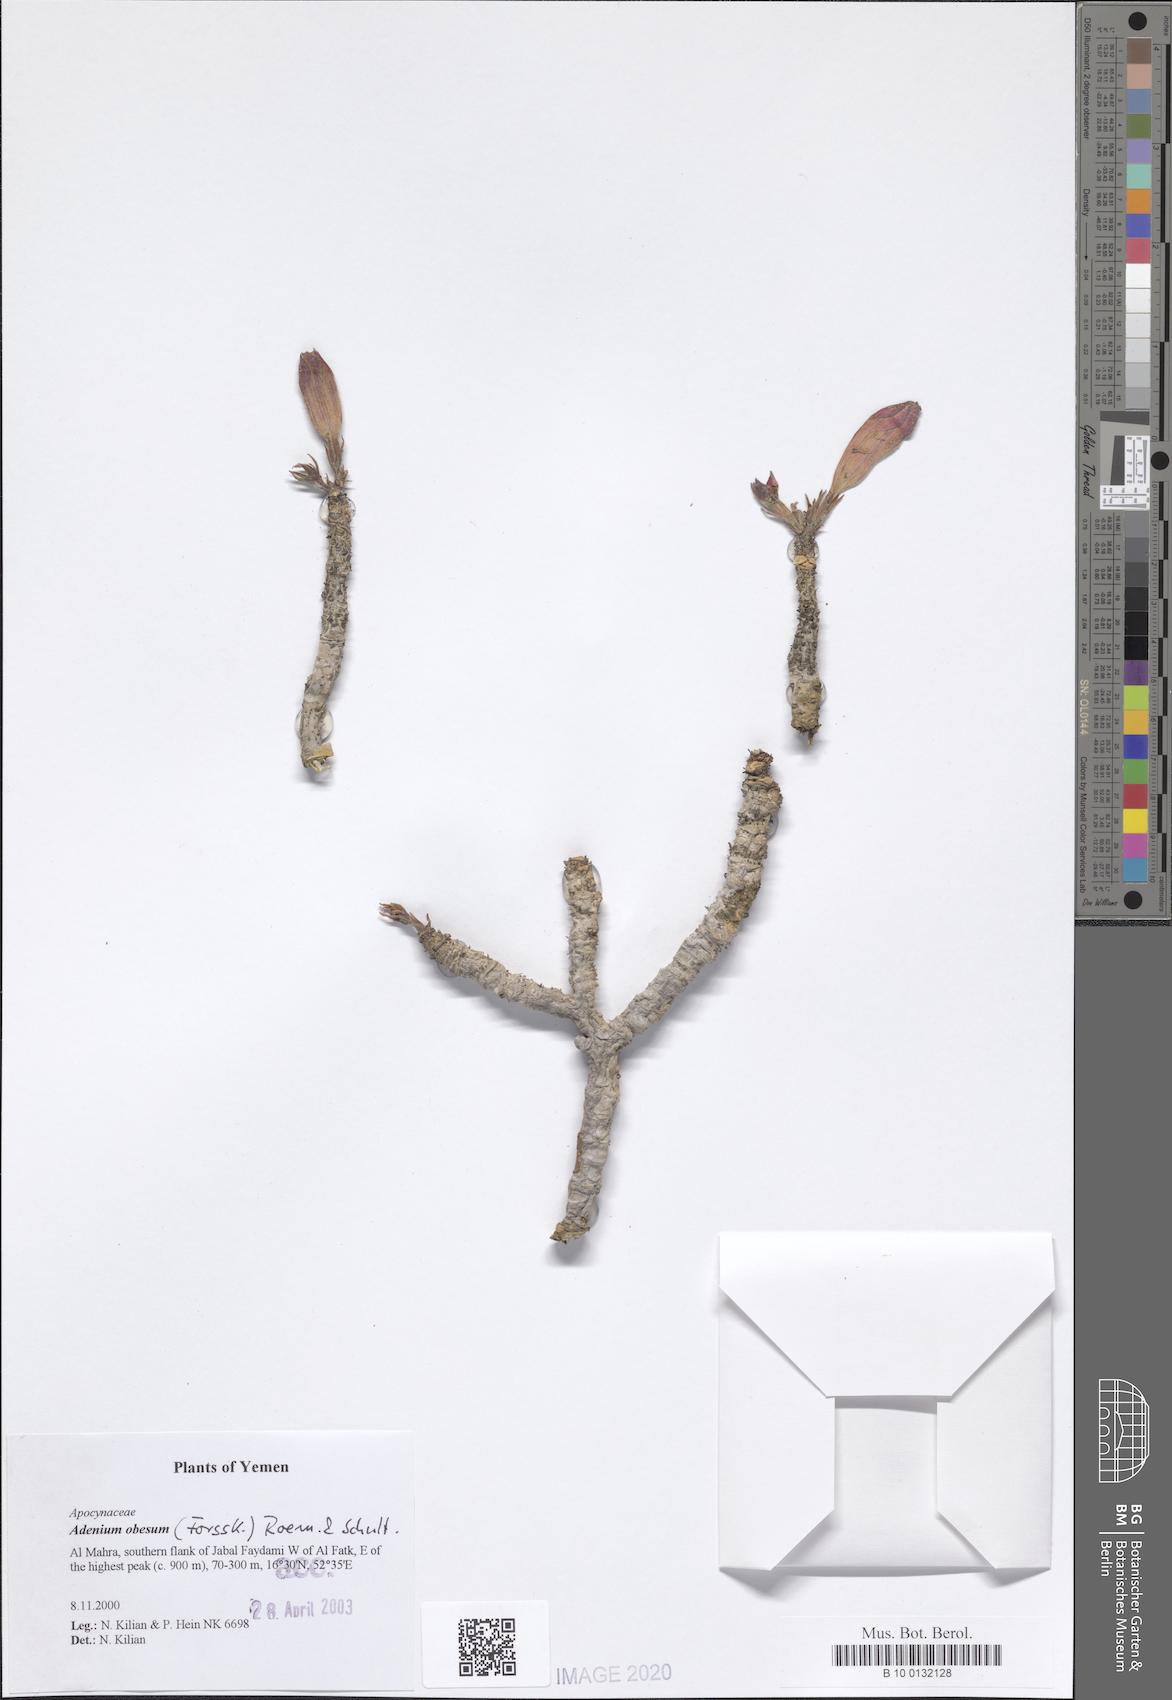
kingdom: Plantae
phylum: Tracheophyta
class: Magnoliopsida
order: Gentianales
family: Apocynaceae
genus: Adenium
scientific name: Adenium obesum
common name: Desert-rose
